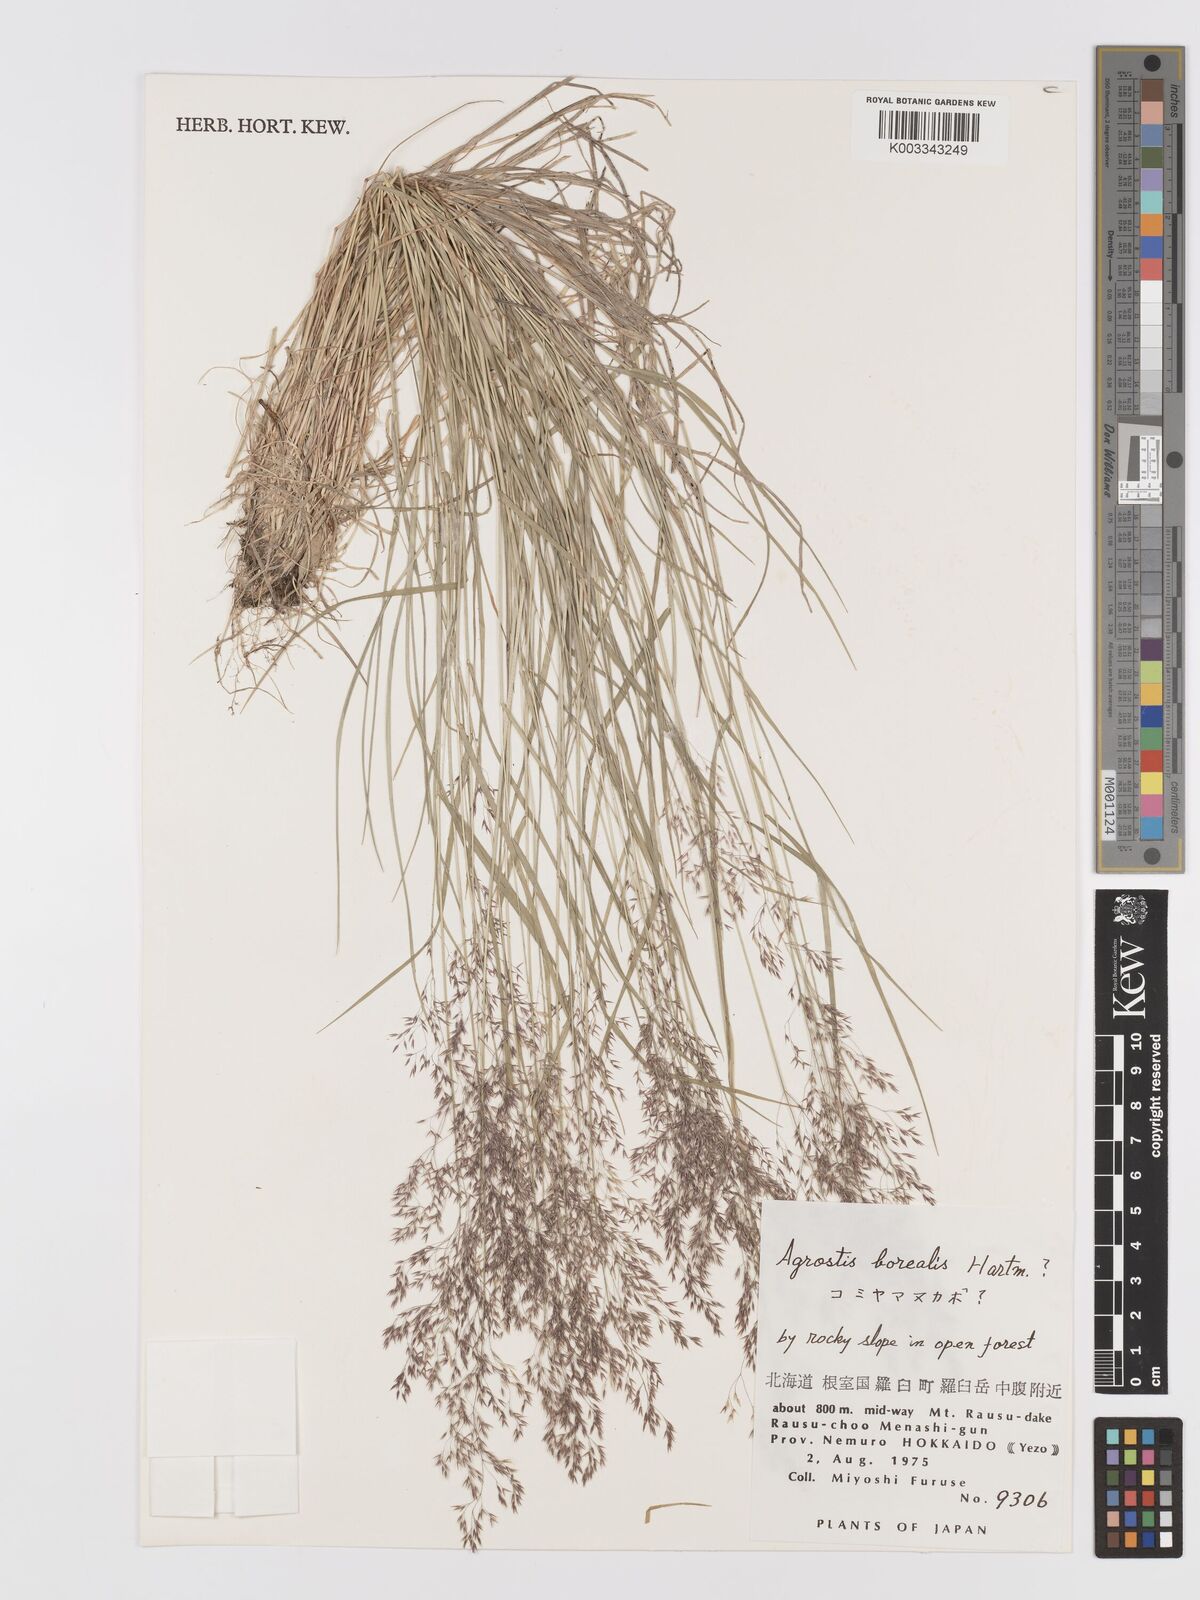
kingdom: Plantae
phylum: Tracheophyta
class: Liliopsida
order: Poales
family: Poaceae
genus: Agrostis
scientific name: Agrostis mertensii
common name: Northern bent
